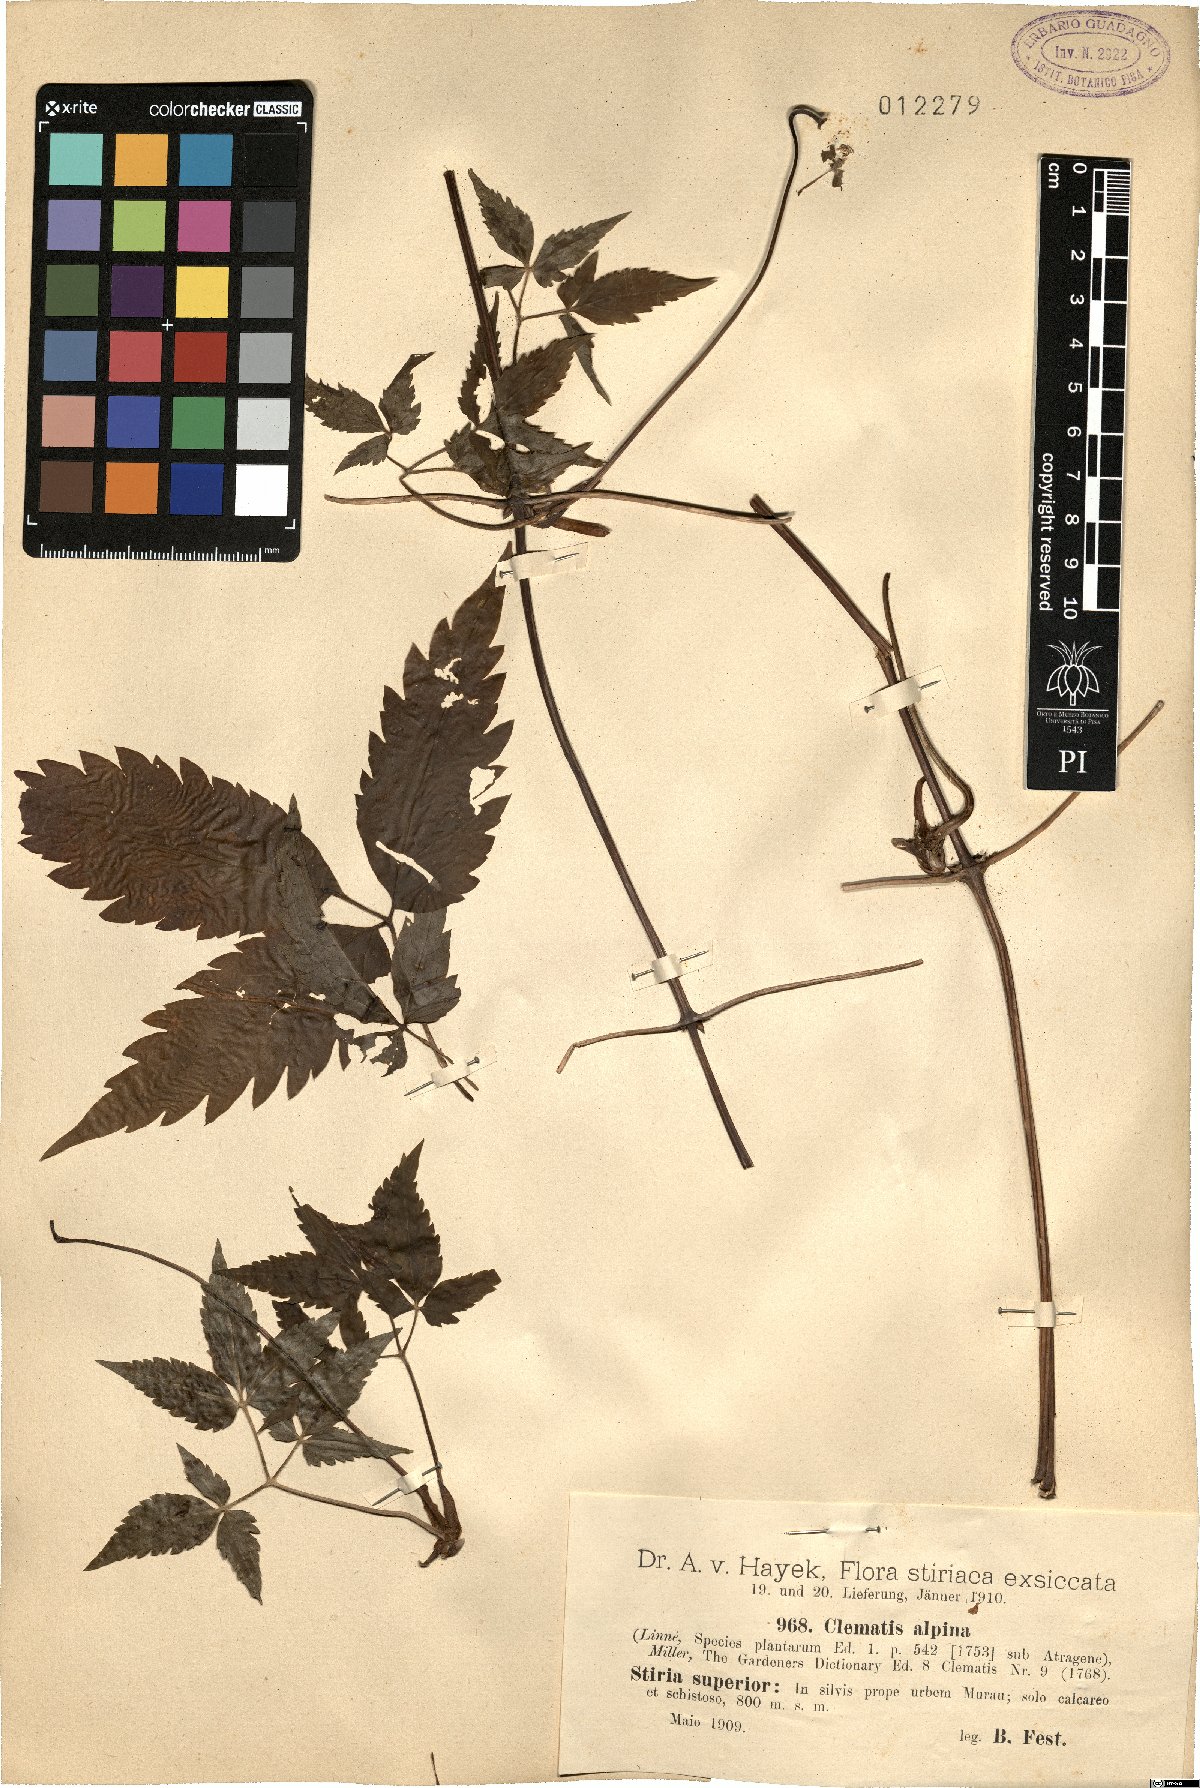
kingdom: Plantae
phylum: Tracheophyta
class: Magnoliopsida
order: Ranunculales
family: Ranunculaceae
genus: Clematis
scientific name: Clematis alpina
